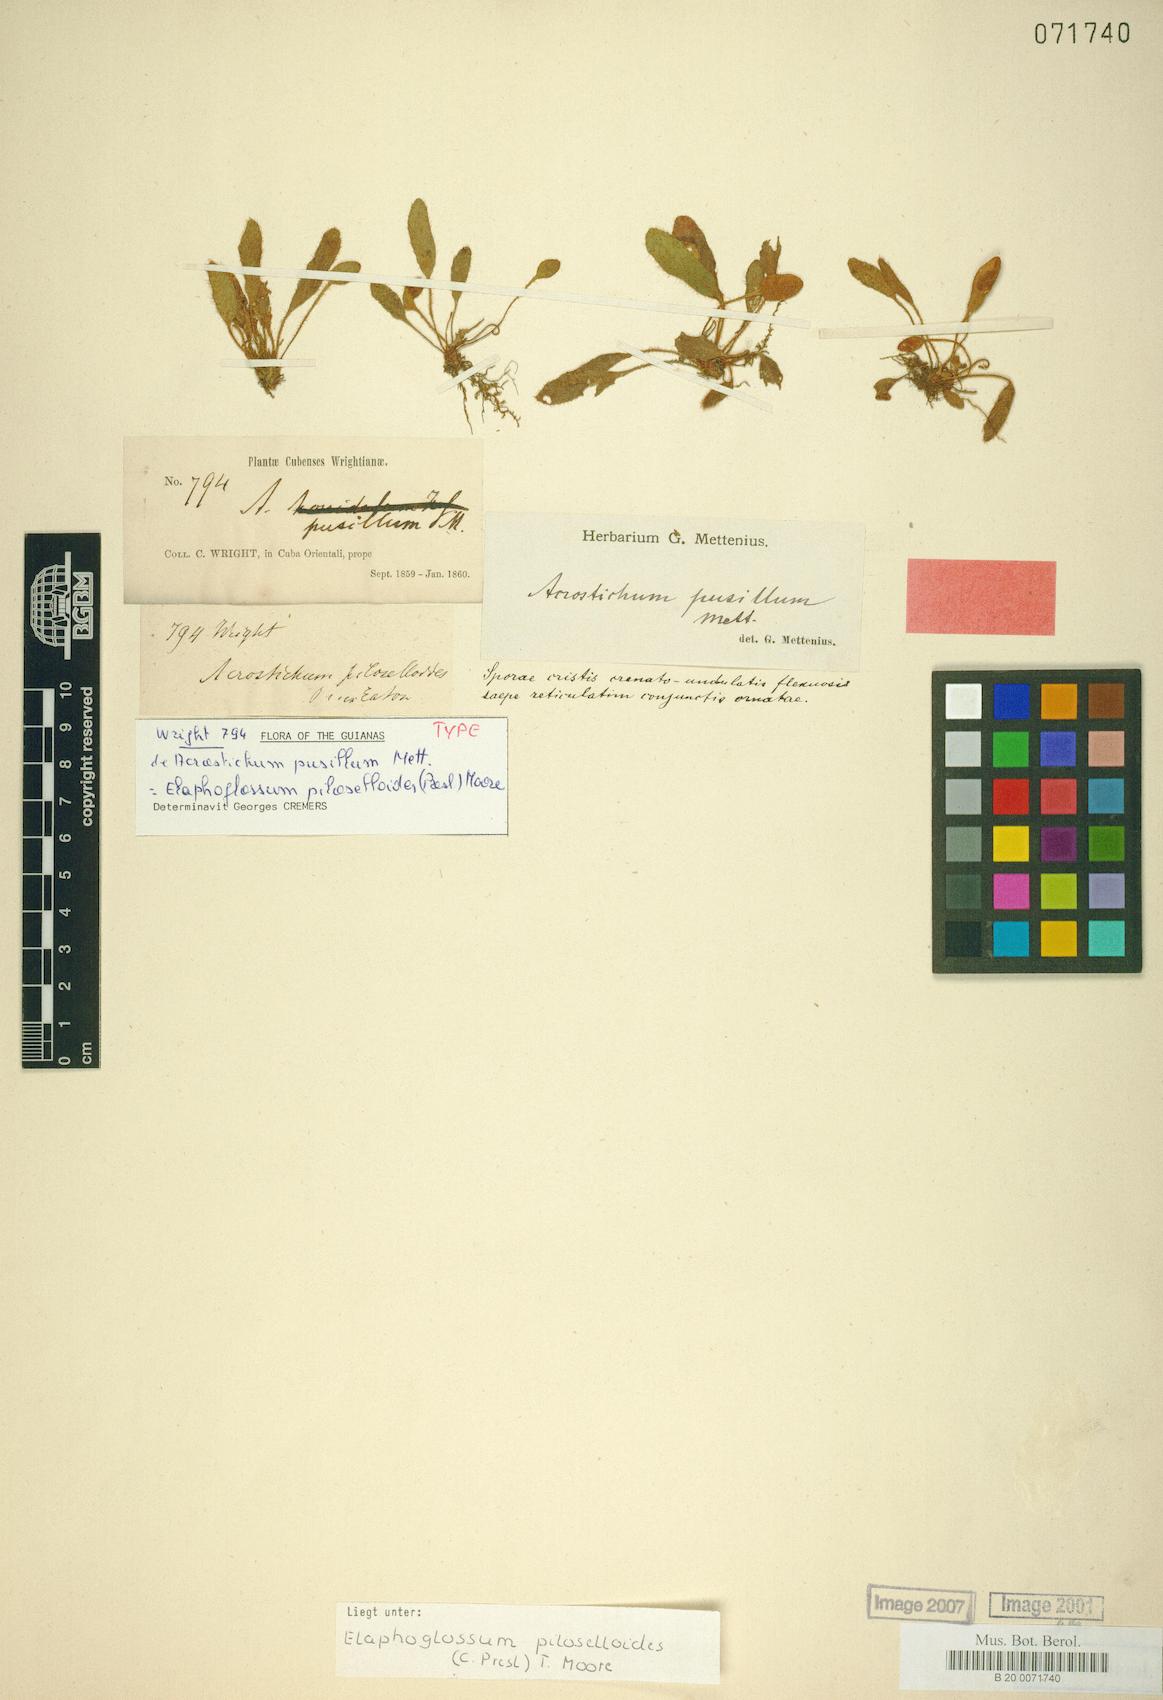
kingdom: Plantae
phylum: Tracheophyta
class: Polypodiopsida
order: Polypodiales
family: Dryopteridaceae
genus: Elaphoglossum
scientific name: Elaphoglossum piloselloides
